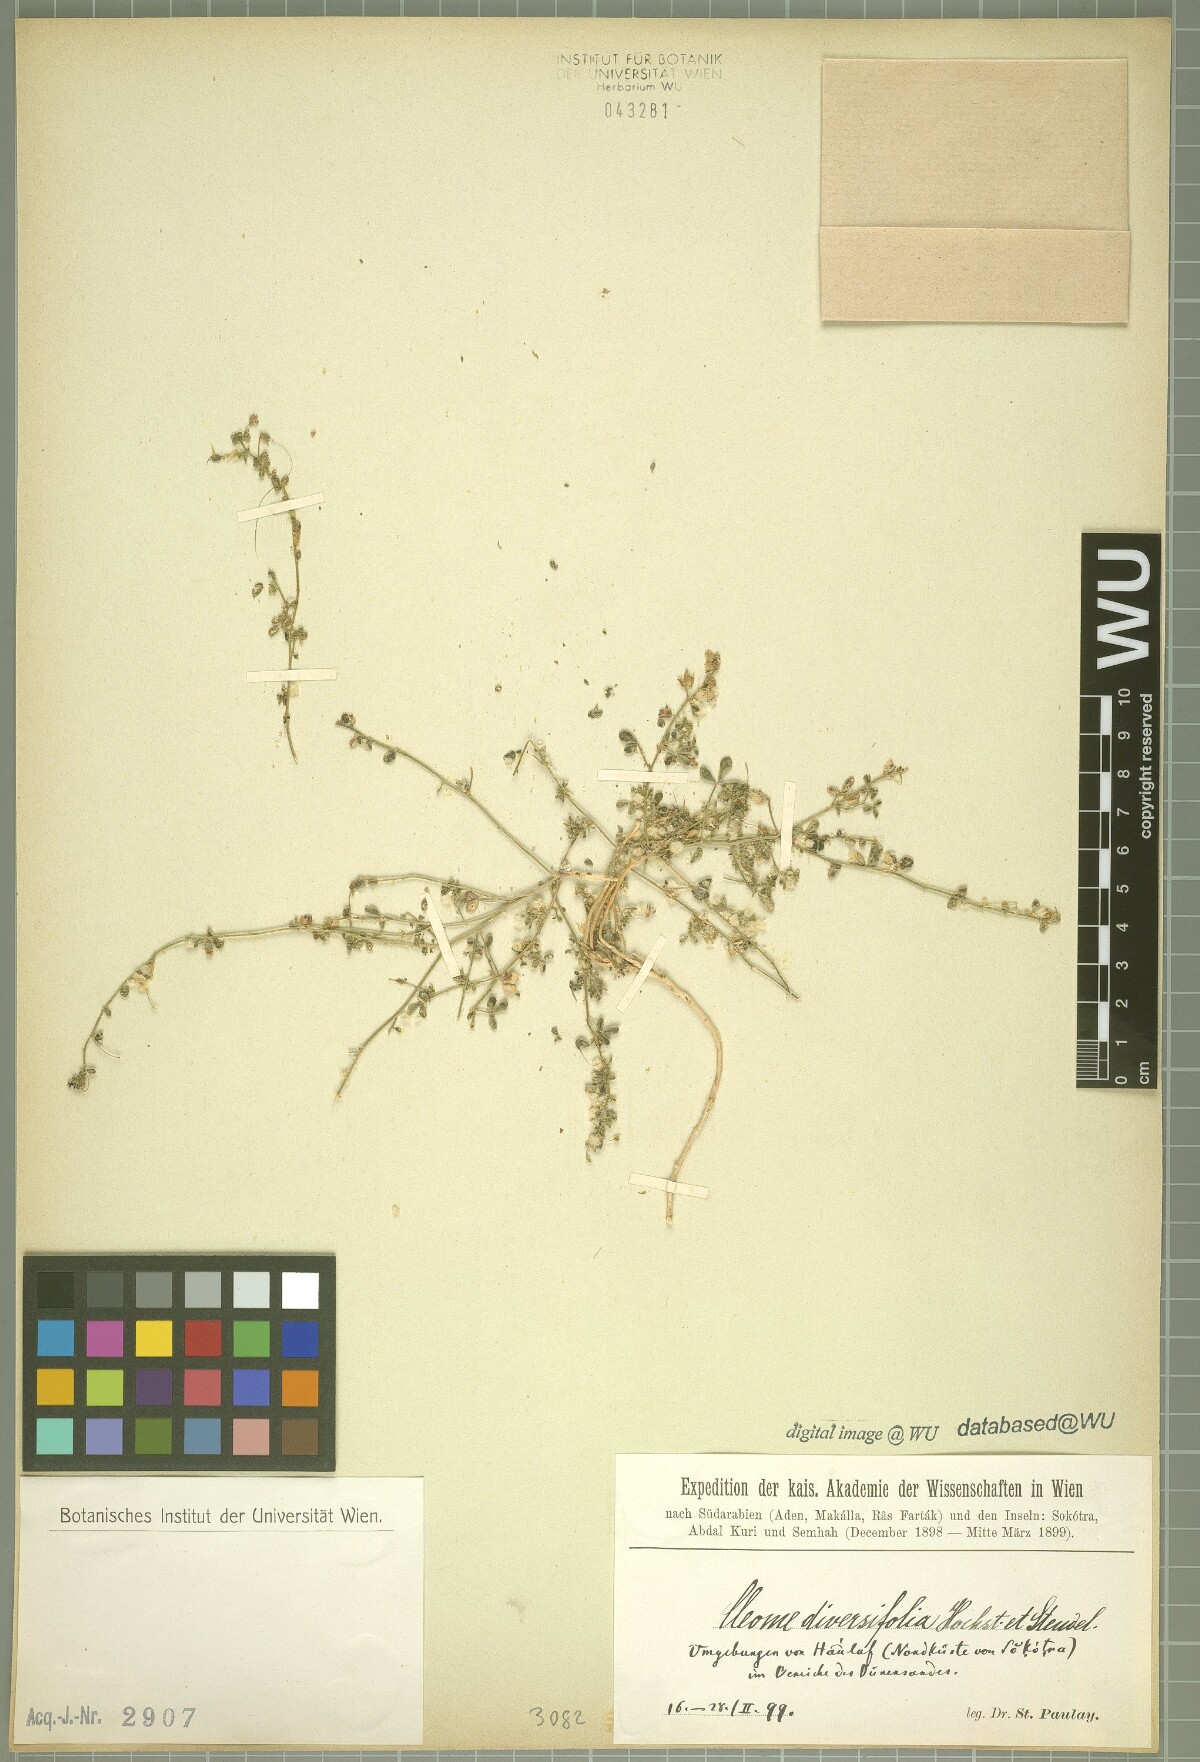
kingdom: Plantae
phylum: Tracheophyta
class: Magnoliopsida
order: Brassicales
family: Cleomaceae
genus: Stylidocleome
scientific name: Stylidocleome brachycarpa
